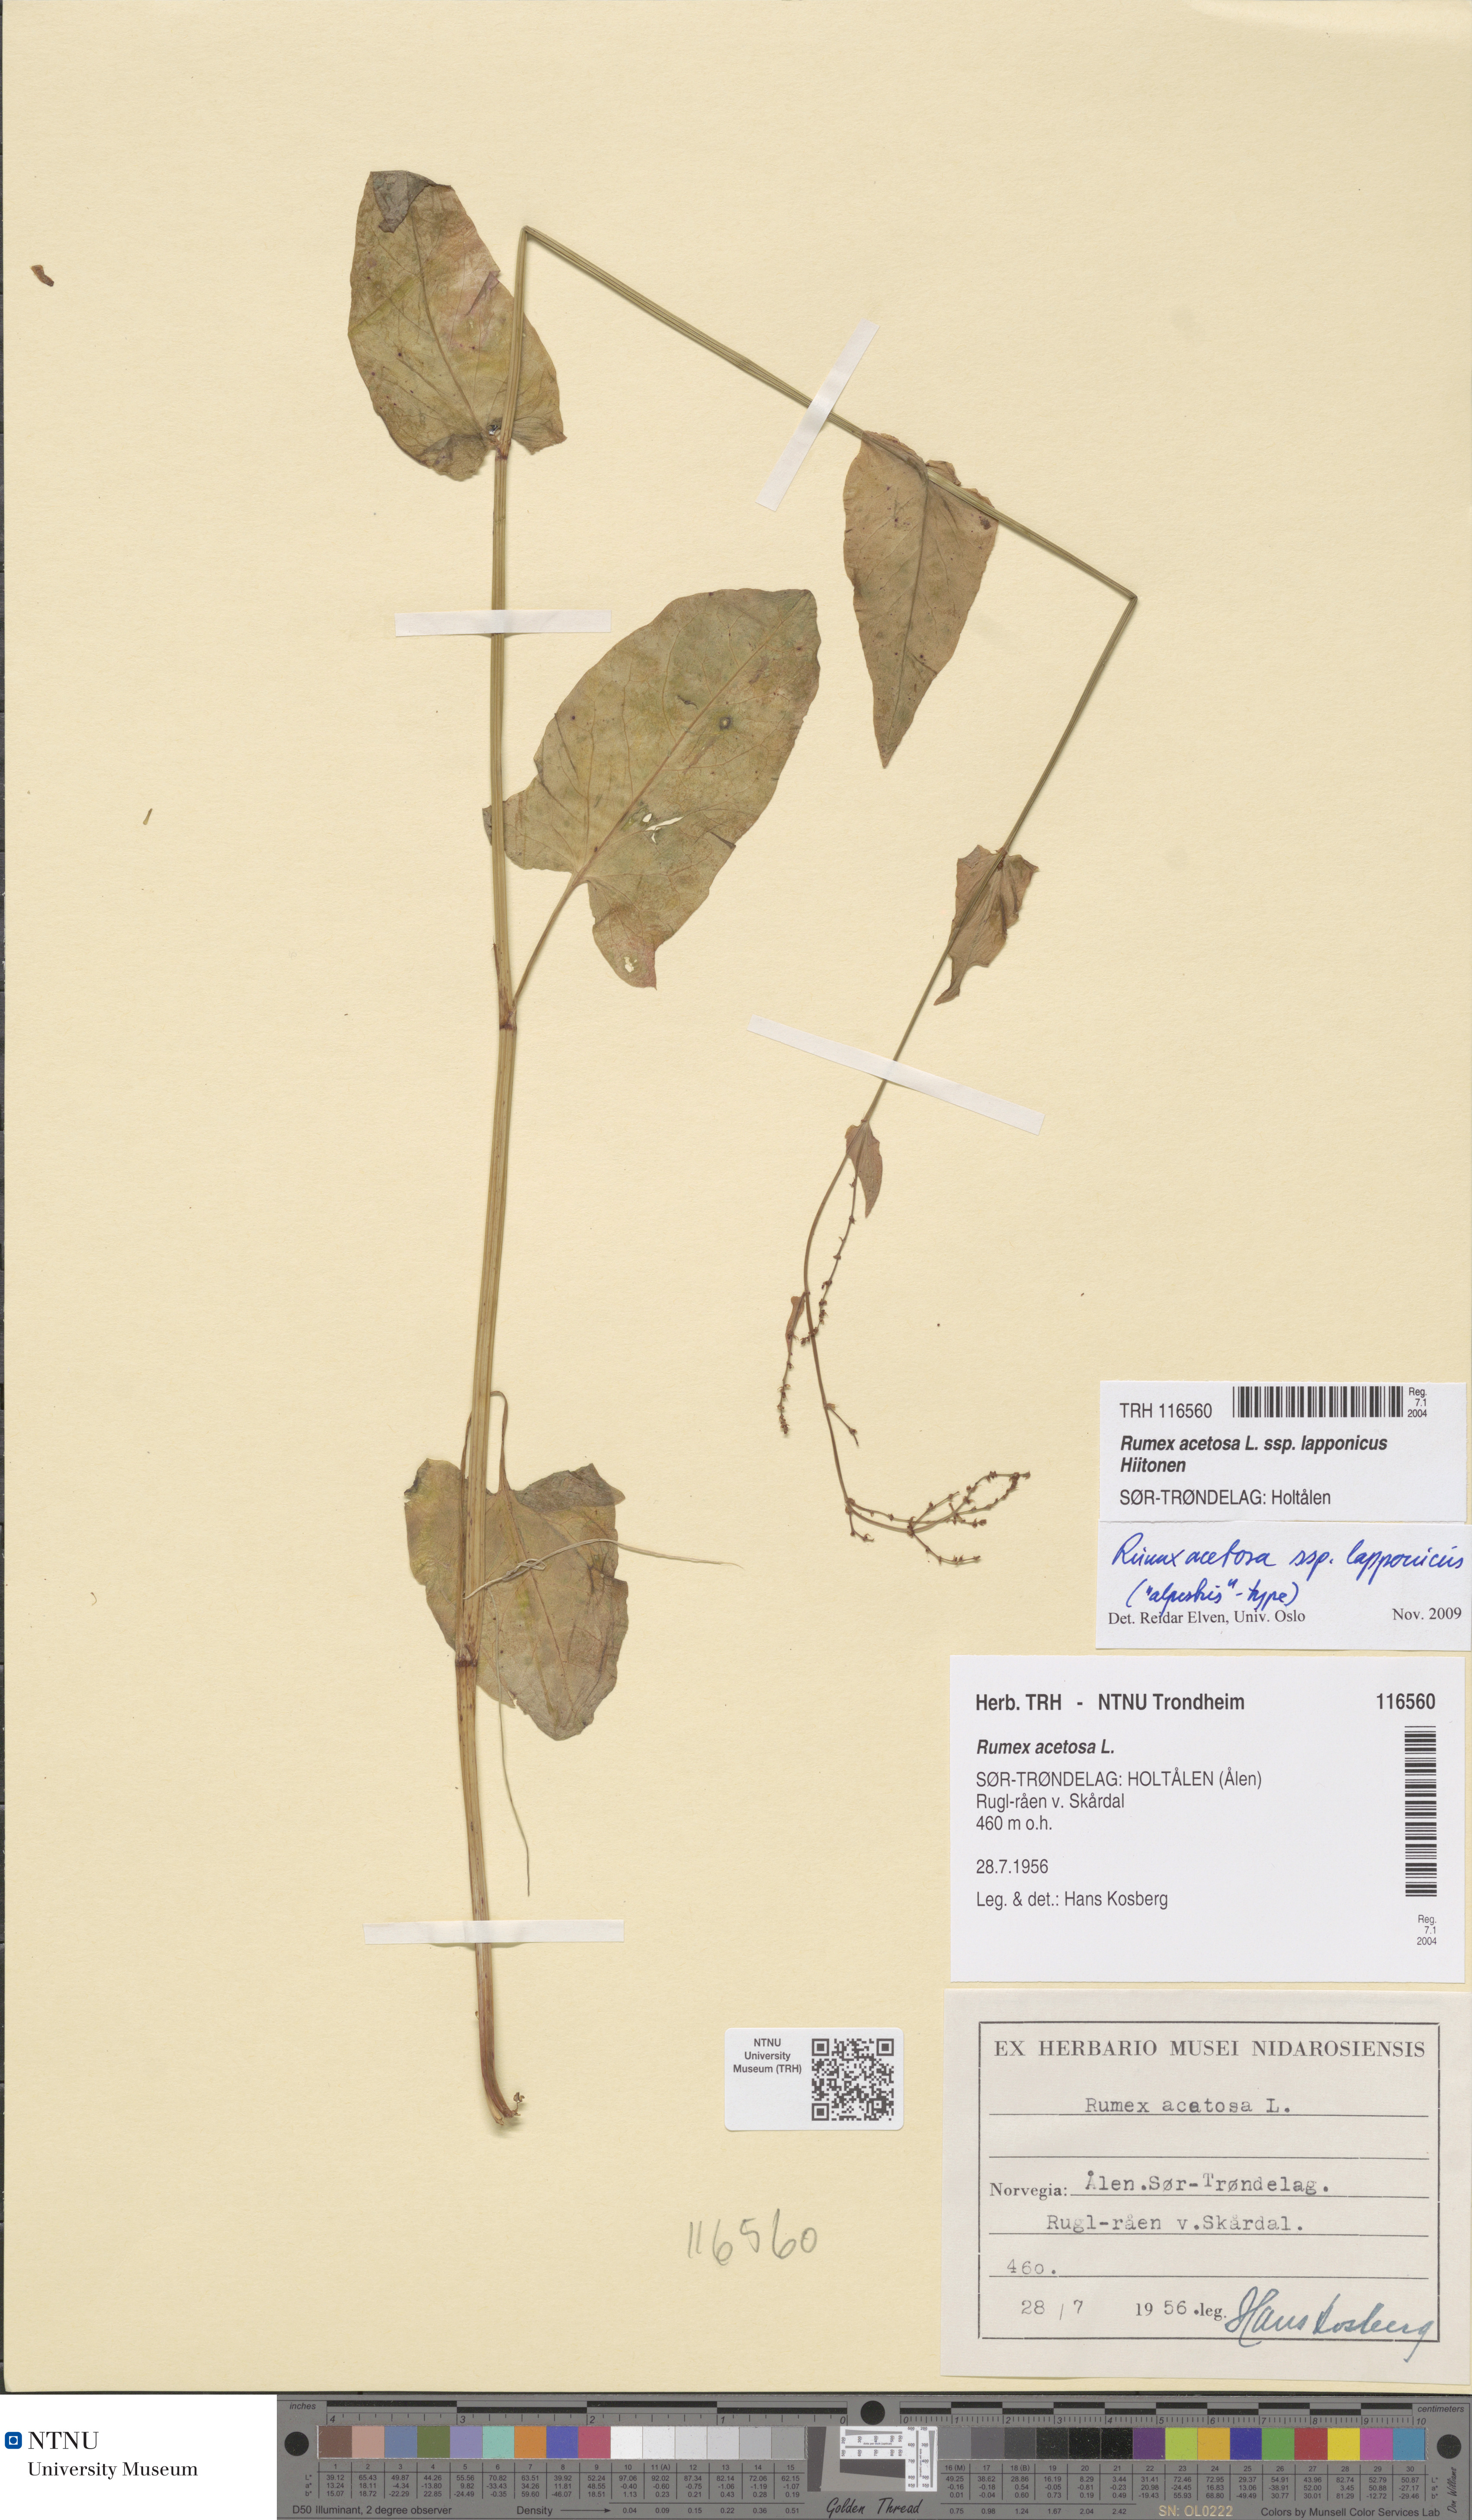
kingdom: Plantae
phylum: Tracheophyta
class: Magnoliopsida
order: Caryophyllales
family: Polygonaceae
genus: Rumex
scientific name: Rumex lapponicus
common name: Lapland mountain sorrel
